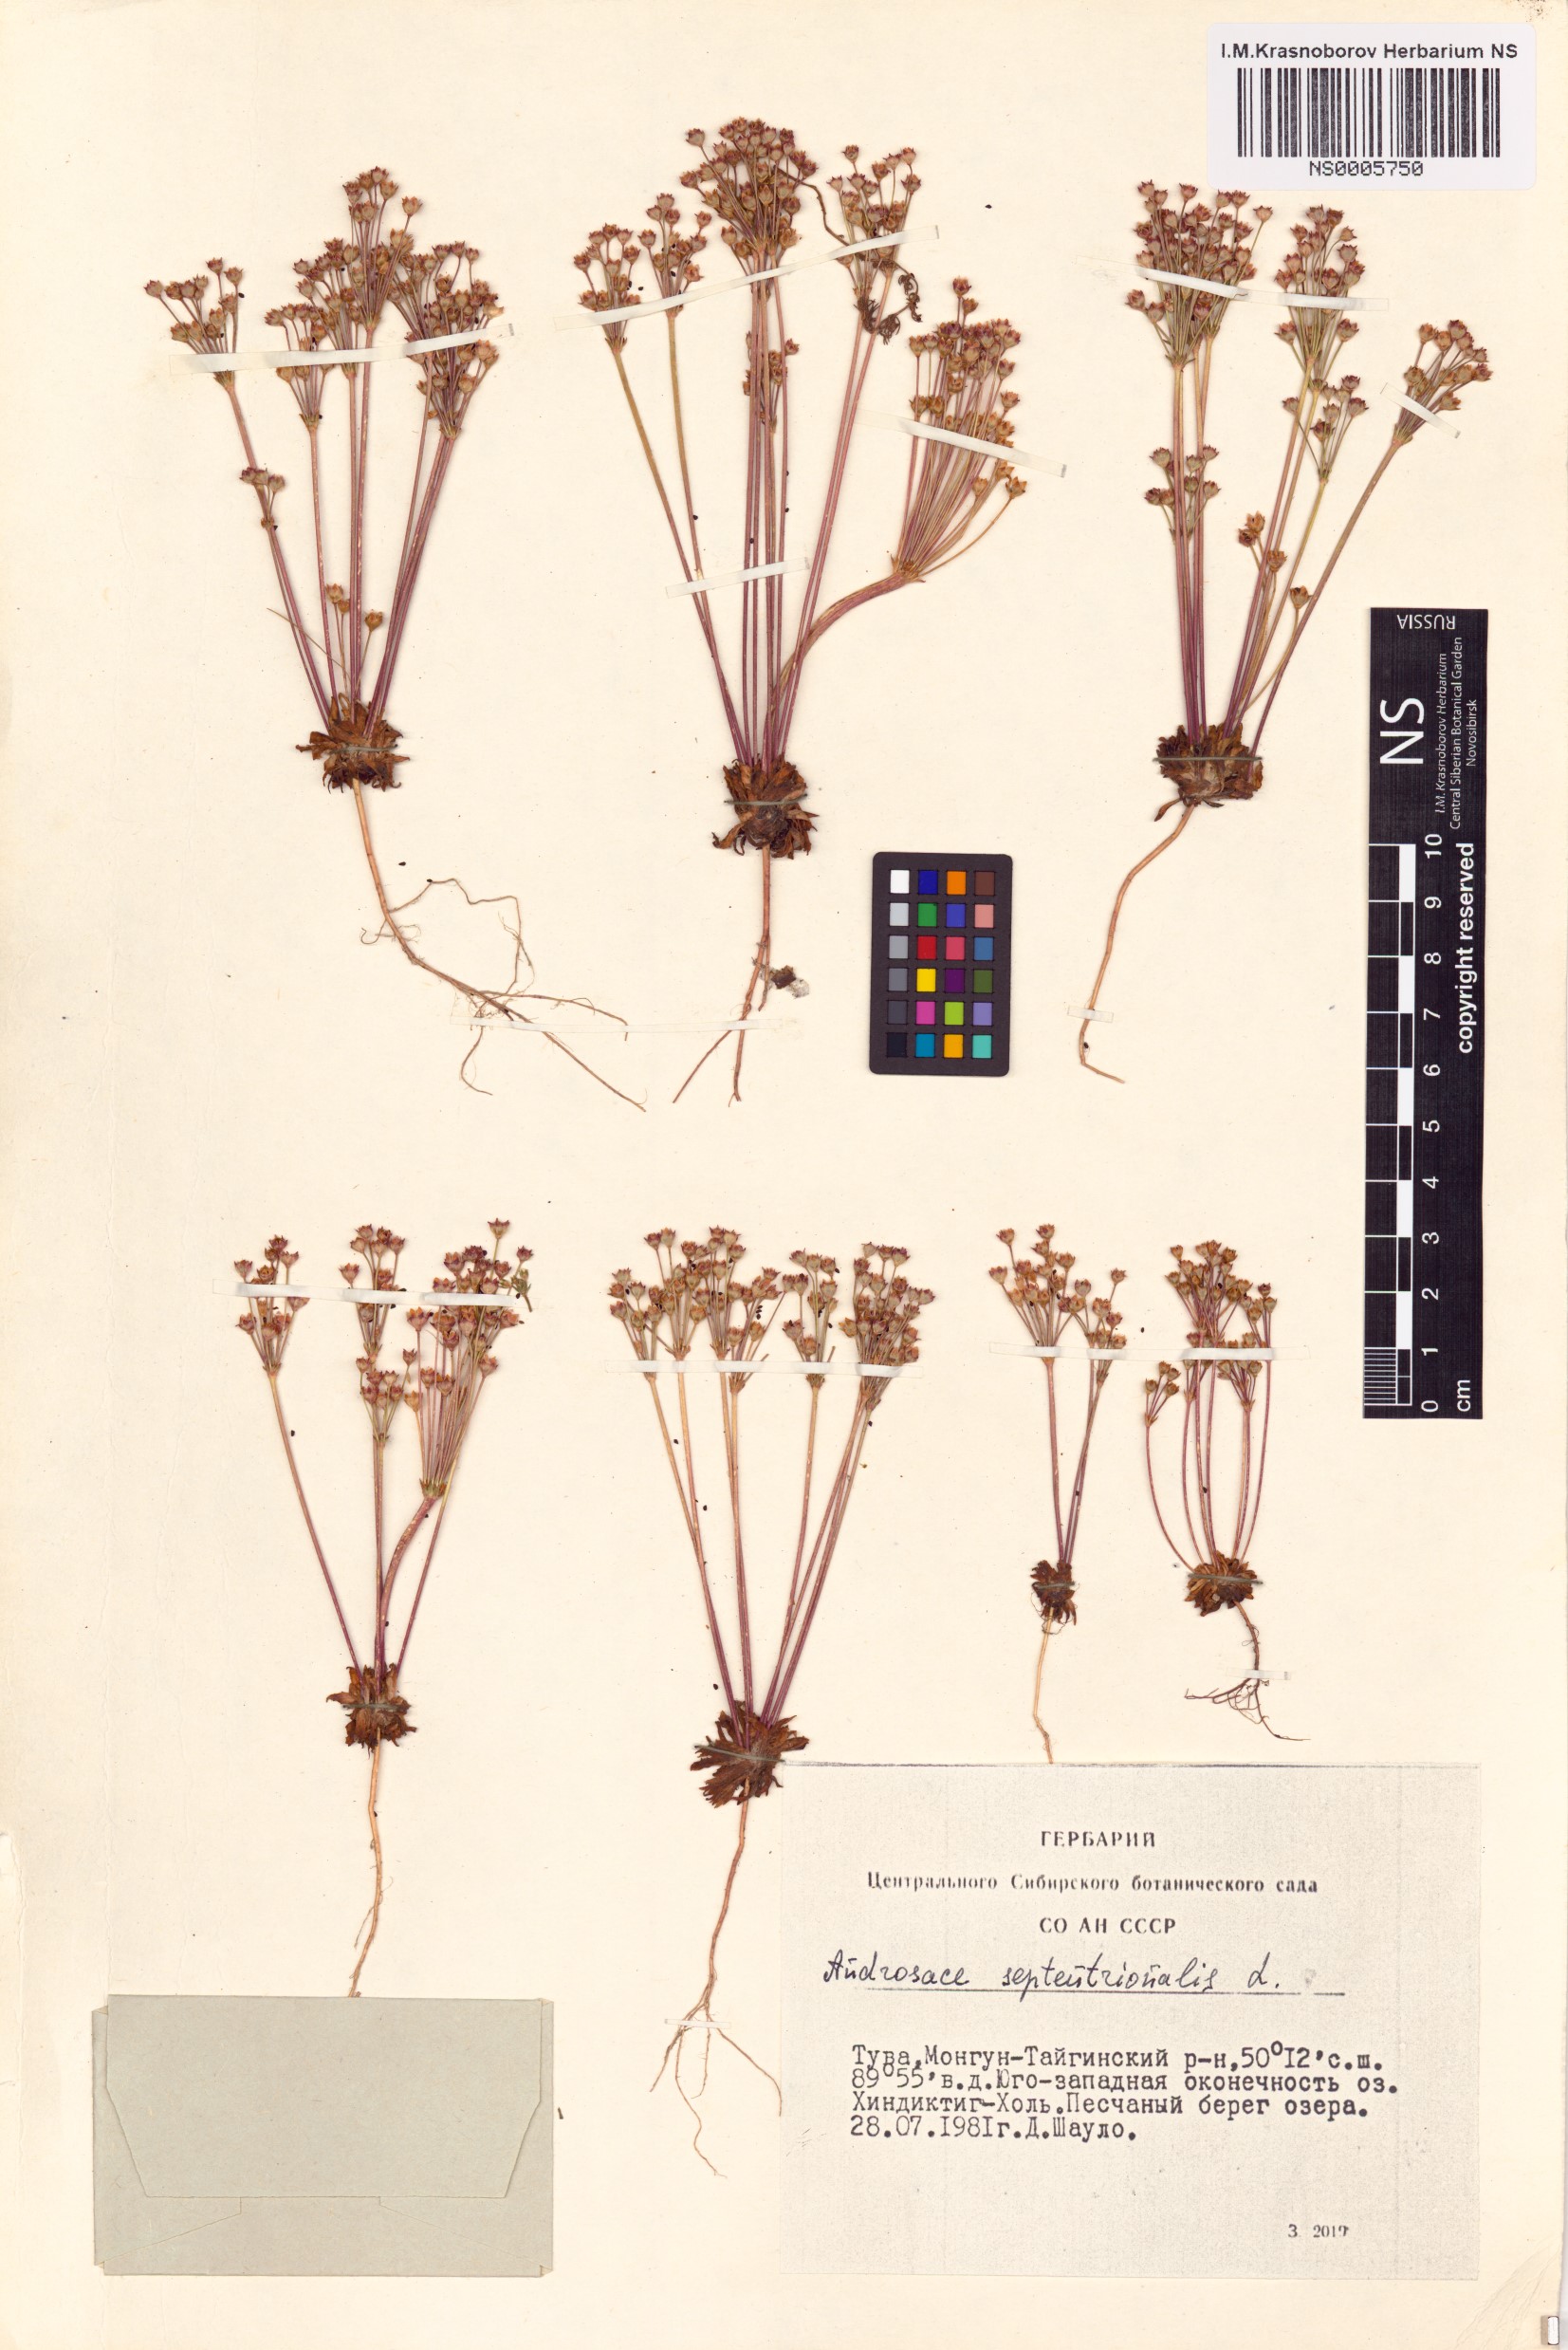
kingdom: Plantae
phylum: Tracheophyta
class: Magnoliopsida
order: Ericales
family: Primulaceae
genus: Androsace
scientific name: Androsace septentrionalis
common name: Hairy northern fairy-candelabra
